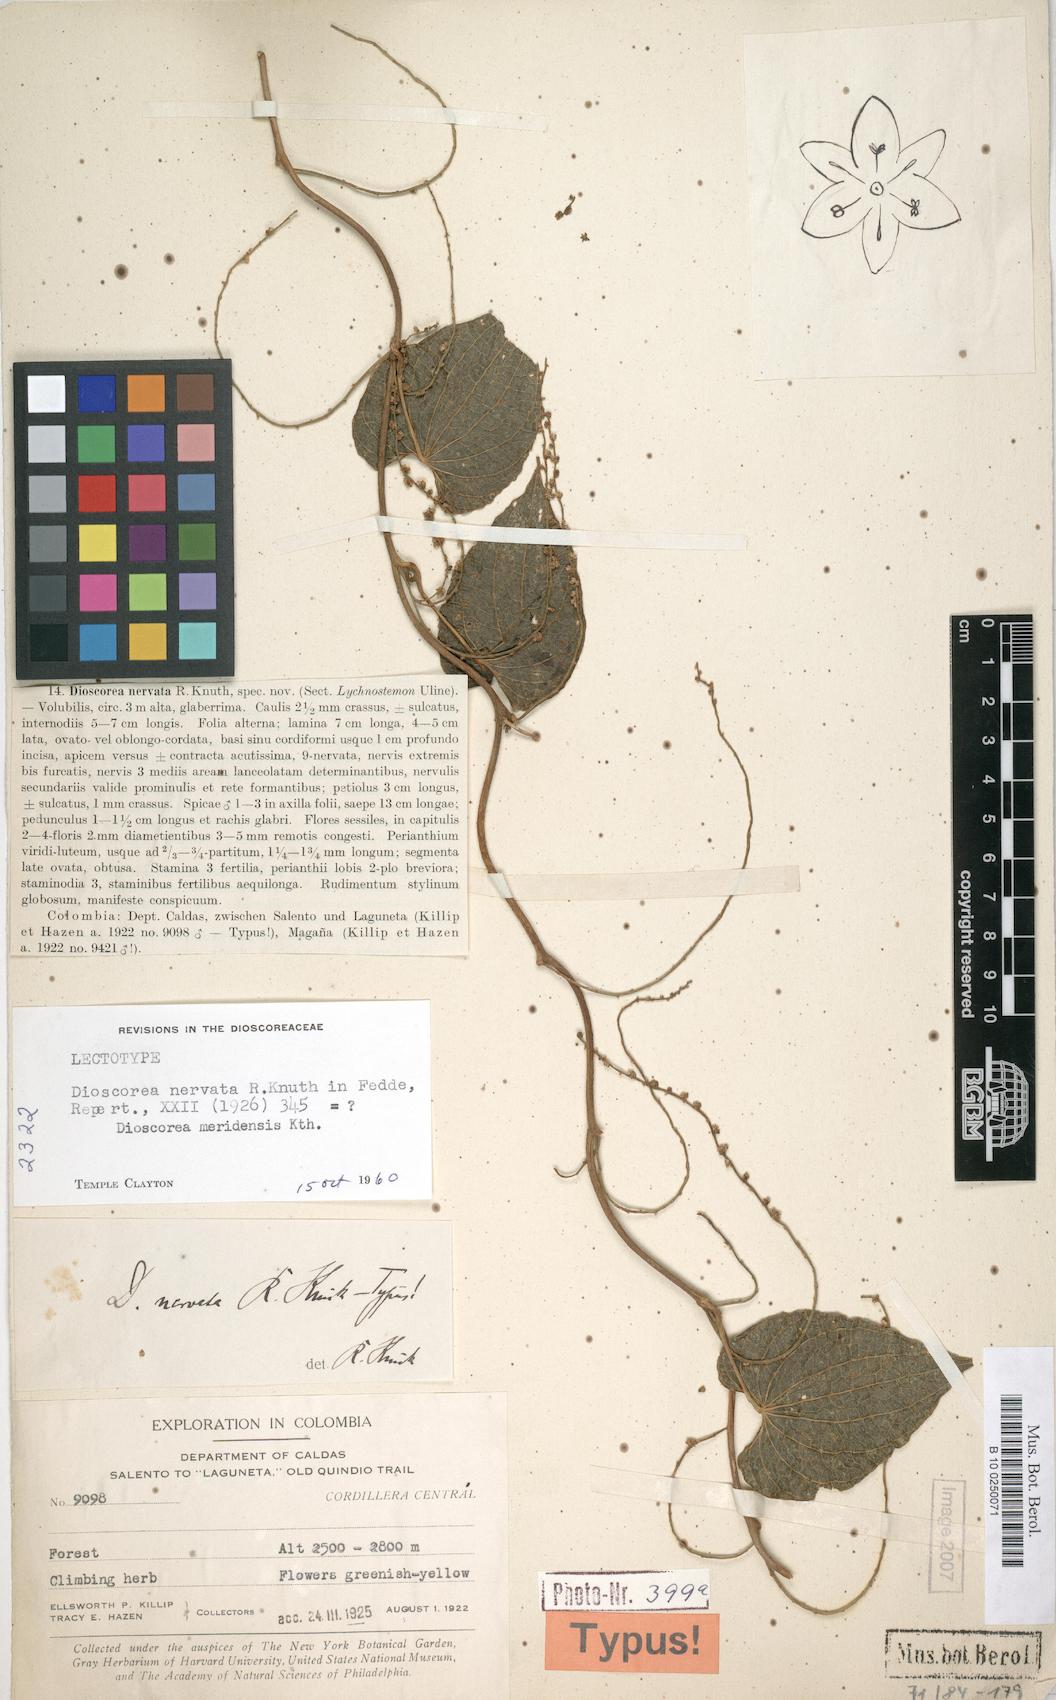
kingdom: Plantae
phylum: Tracheophyta
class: Liliopsida
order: Dioscoreales
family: Dioscoreaceae
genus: Dioscorea
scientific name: Dioscorea nervata
